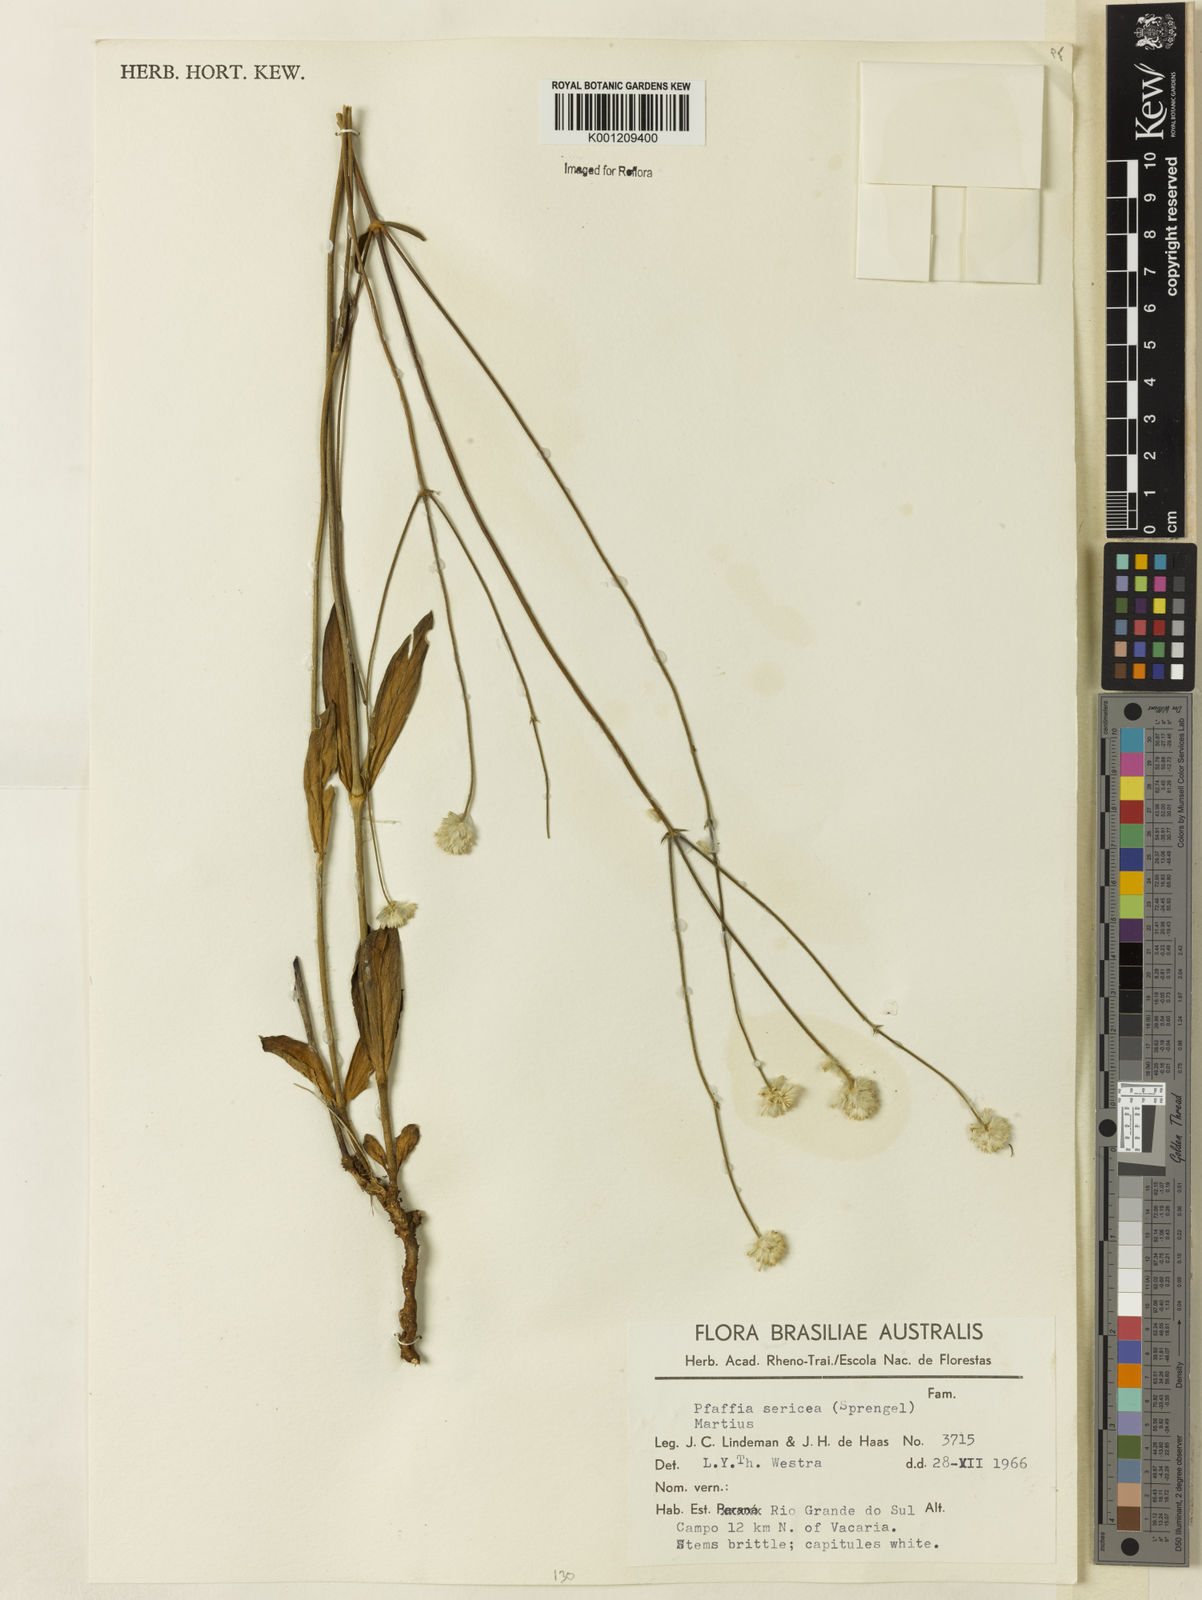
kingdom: Plantae
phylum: Tracheophyta
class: Magnoliopsida
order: Caryophyllales
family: Amaranthaceae
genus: Pfaffia
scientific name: Pfaffia
